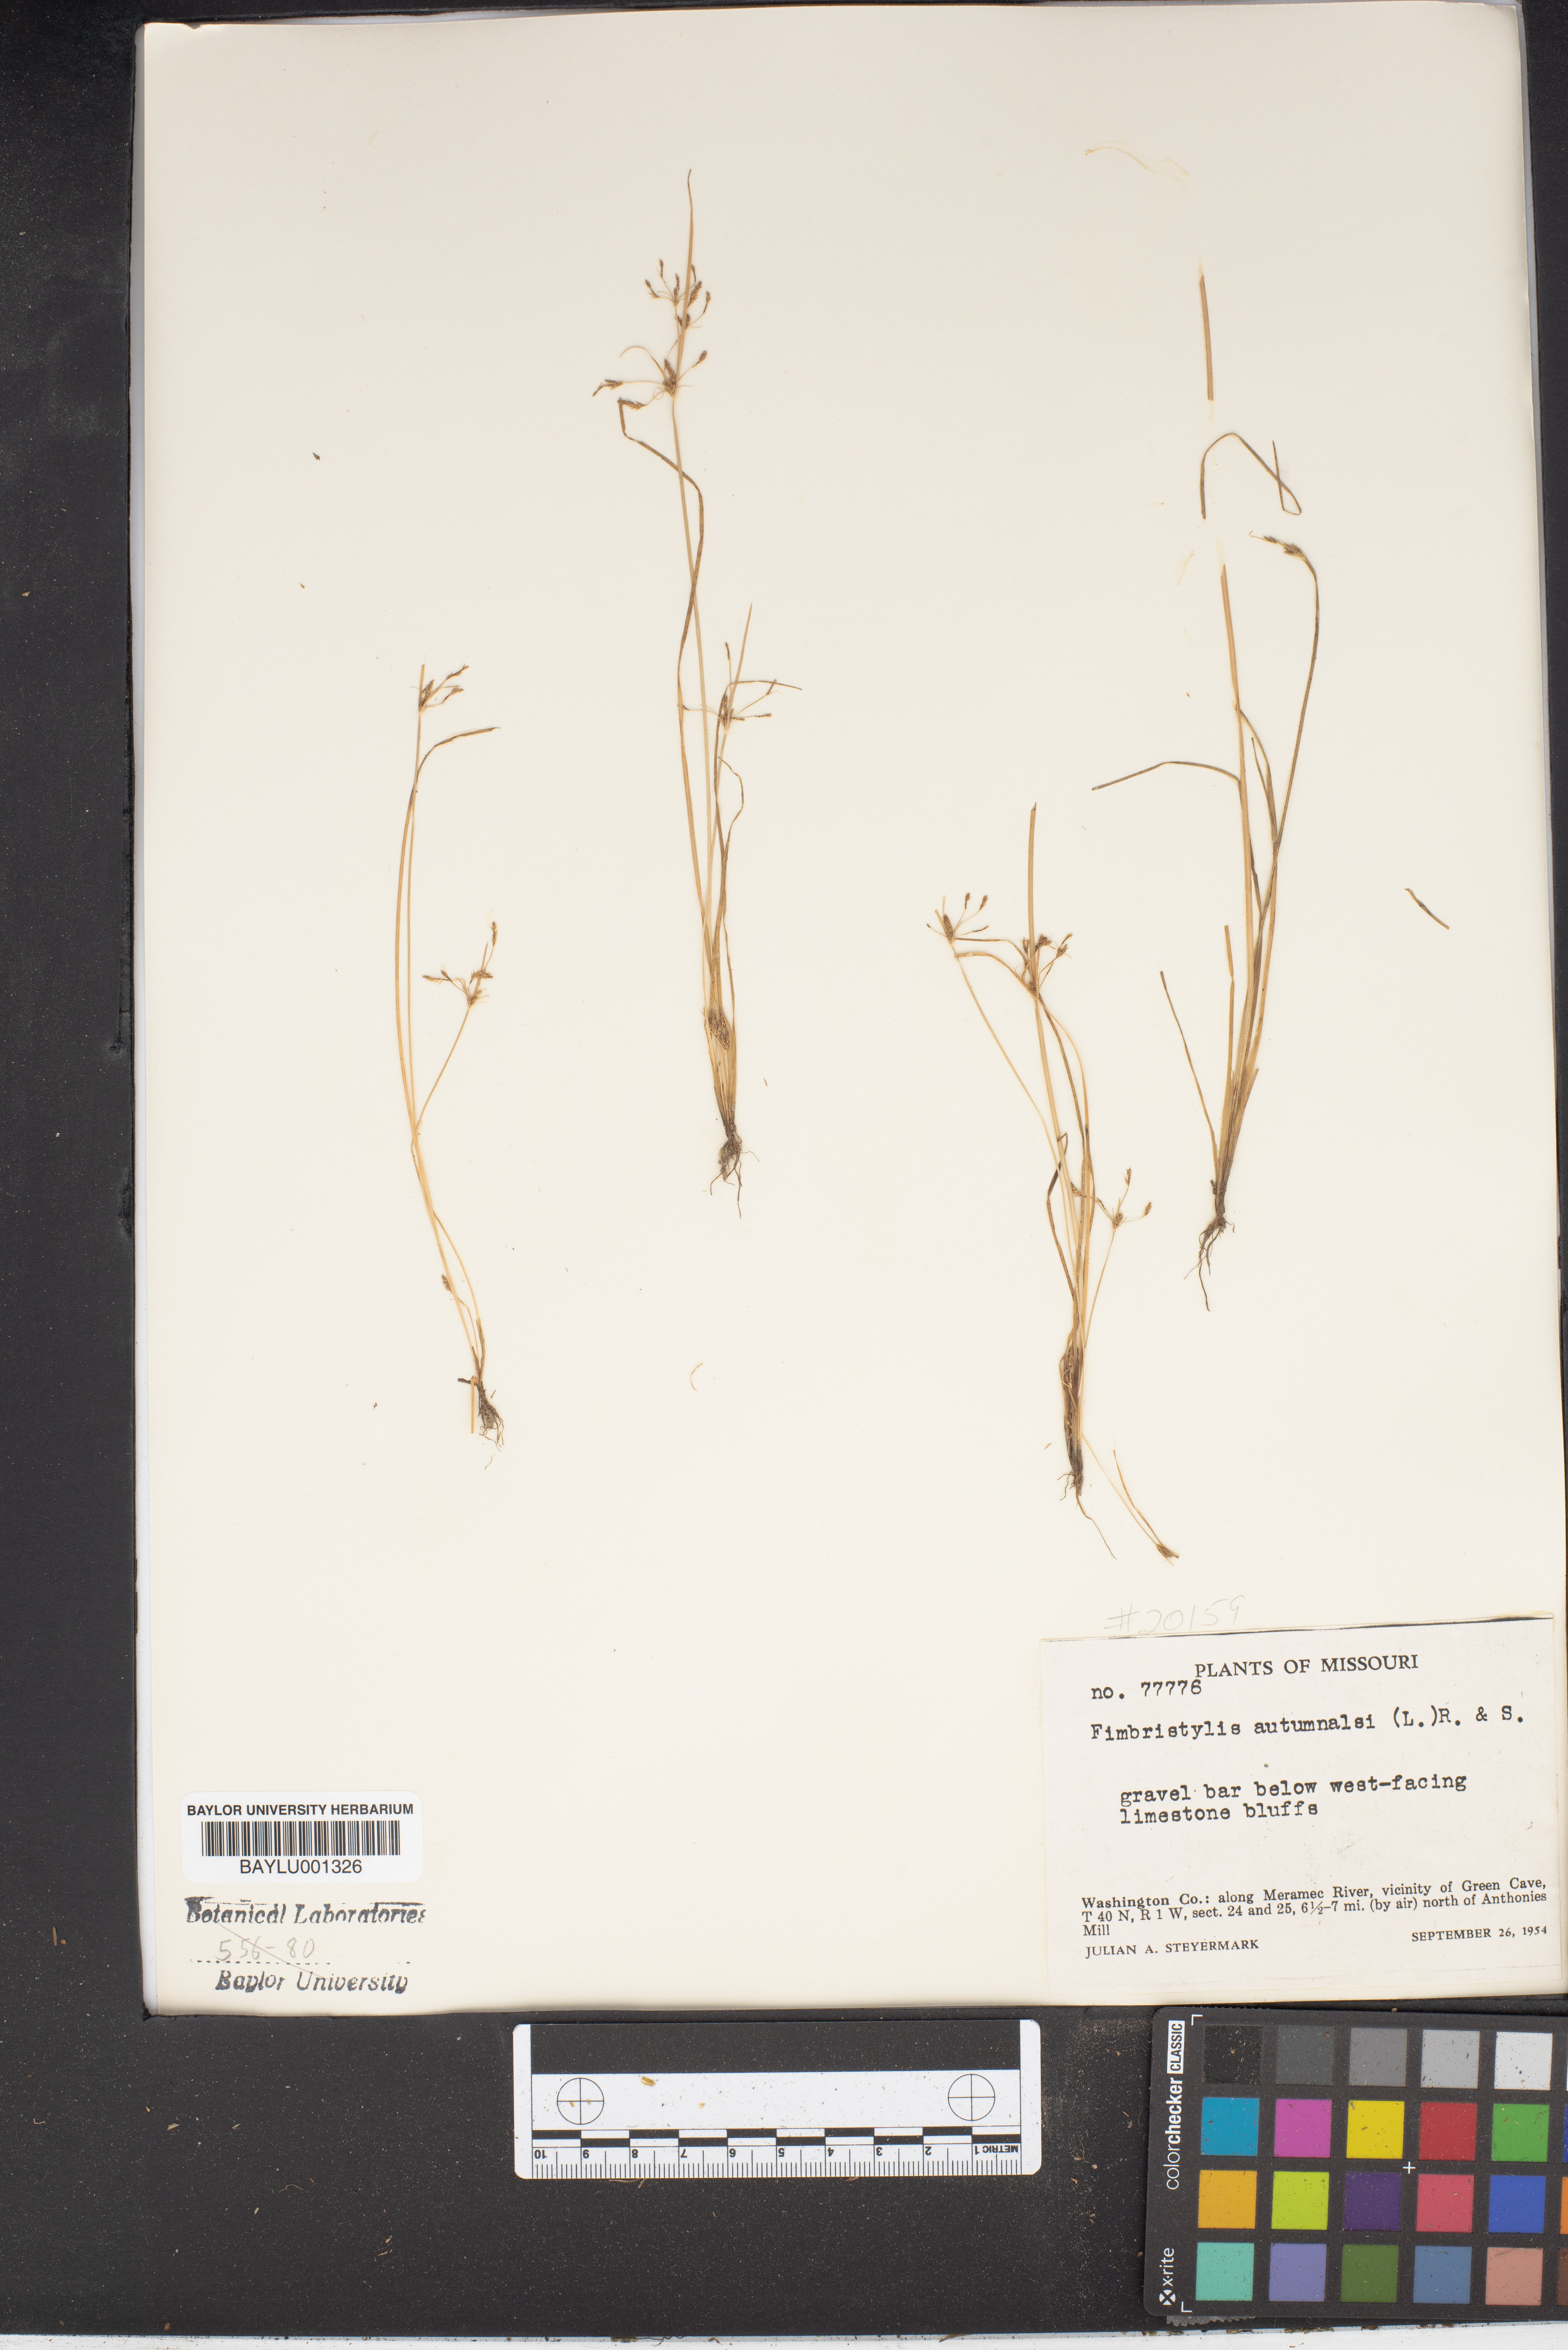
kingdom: Plantae
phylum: Tracheophyta
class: Liliopsida
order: Poales
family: Cyperaceae
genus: Fimbristylis
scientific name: Fimbristylis autumnalis
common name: Slender fimbristylis
